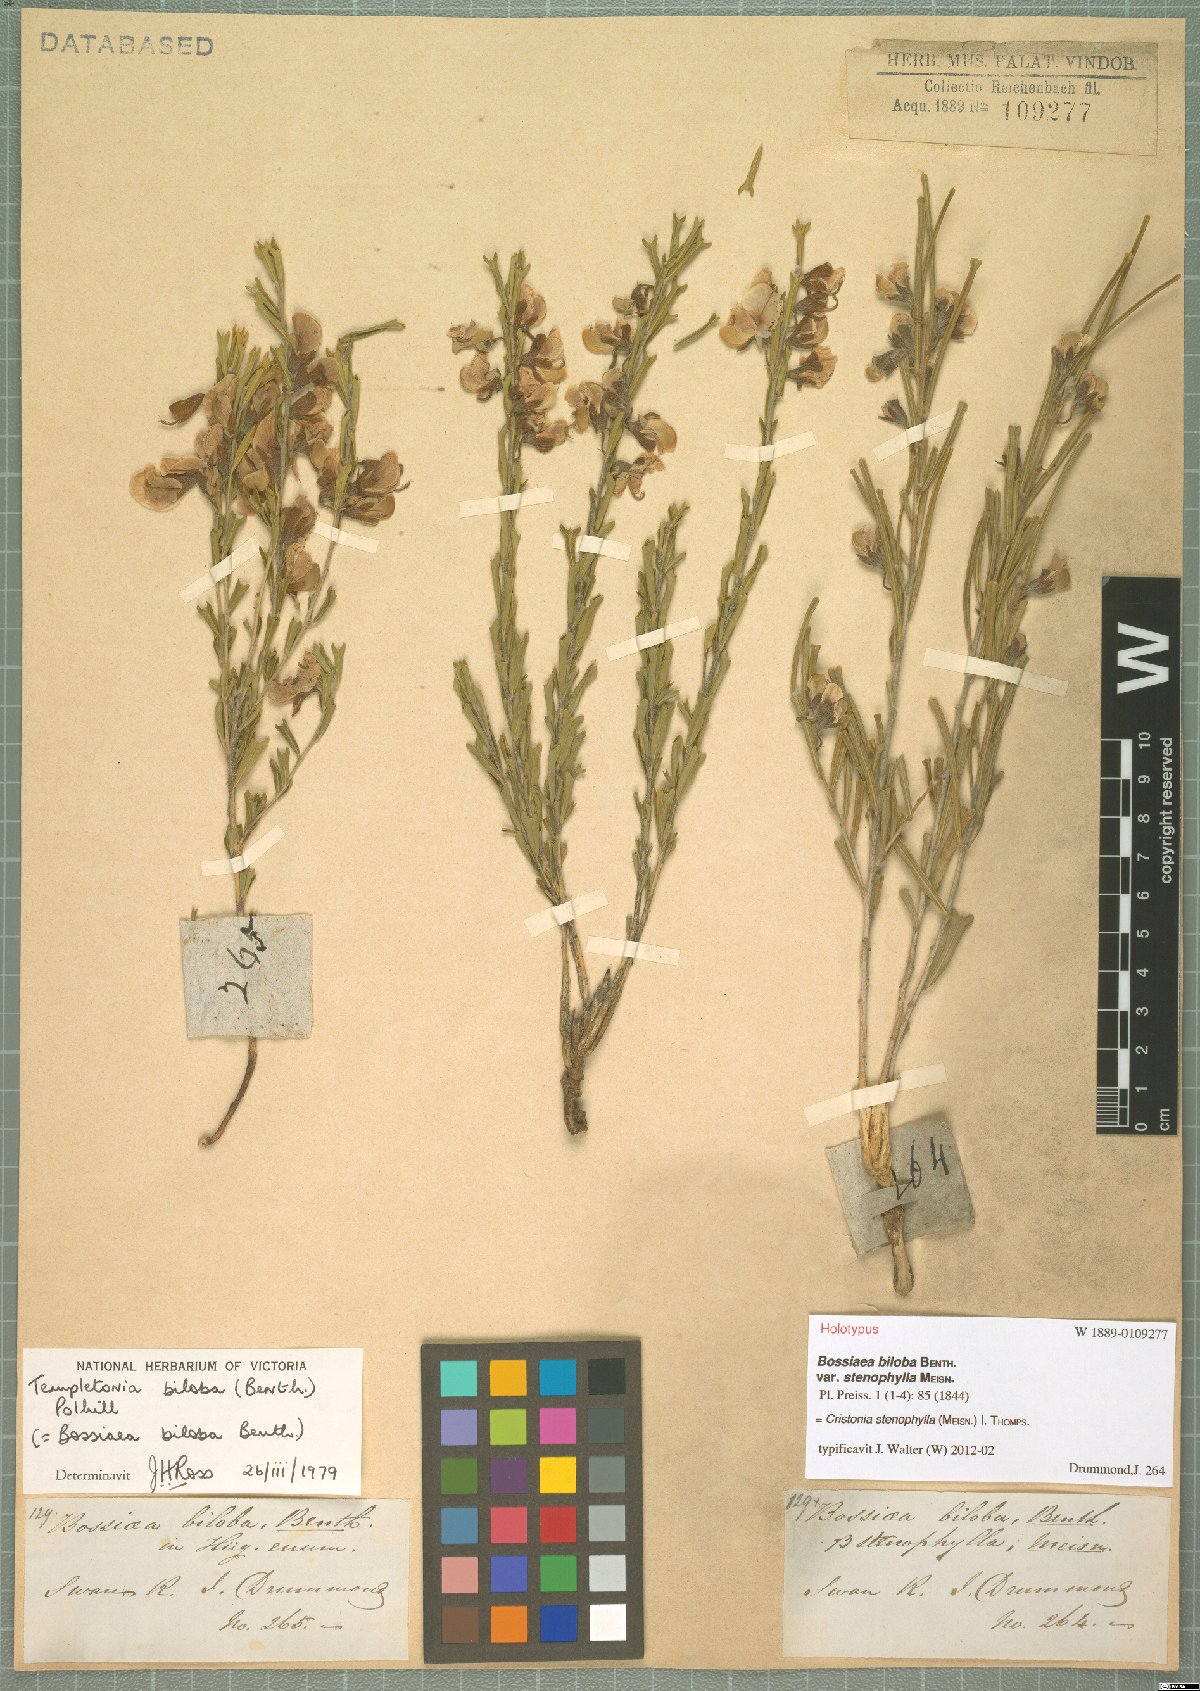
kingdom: Plantae
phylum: Tracheophyta
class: Magnoliopsida
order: Fabales
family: Fabaceae
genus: Cristonia
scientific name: Cristonia biloba
